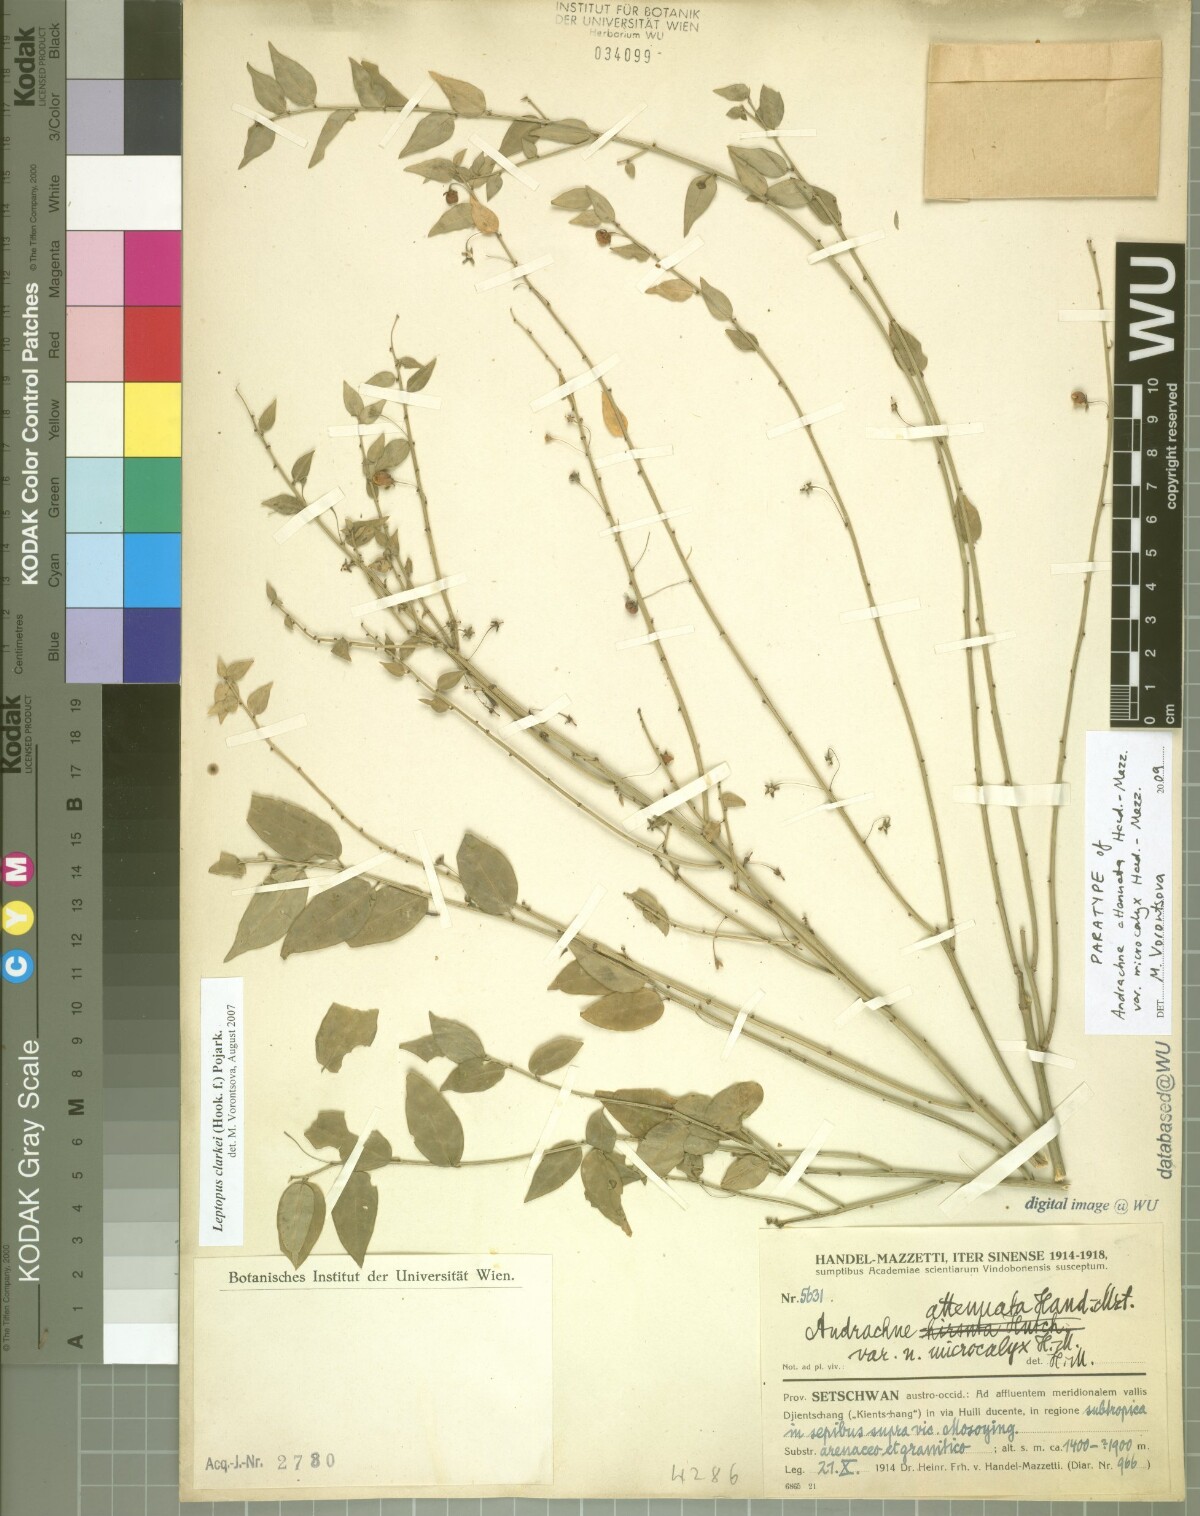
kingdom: Plantae
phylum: Tracheophyta
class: Magnoliopsida
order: Malpighiales
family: Phyllanthaceae
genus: Leptopus
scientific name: Leptopus clarkei
